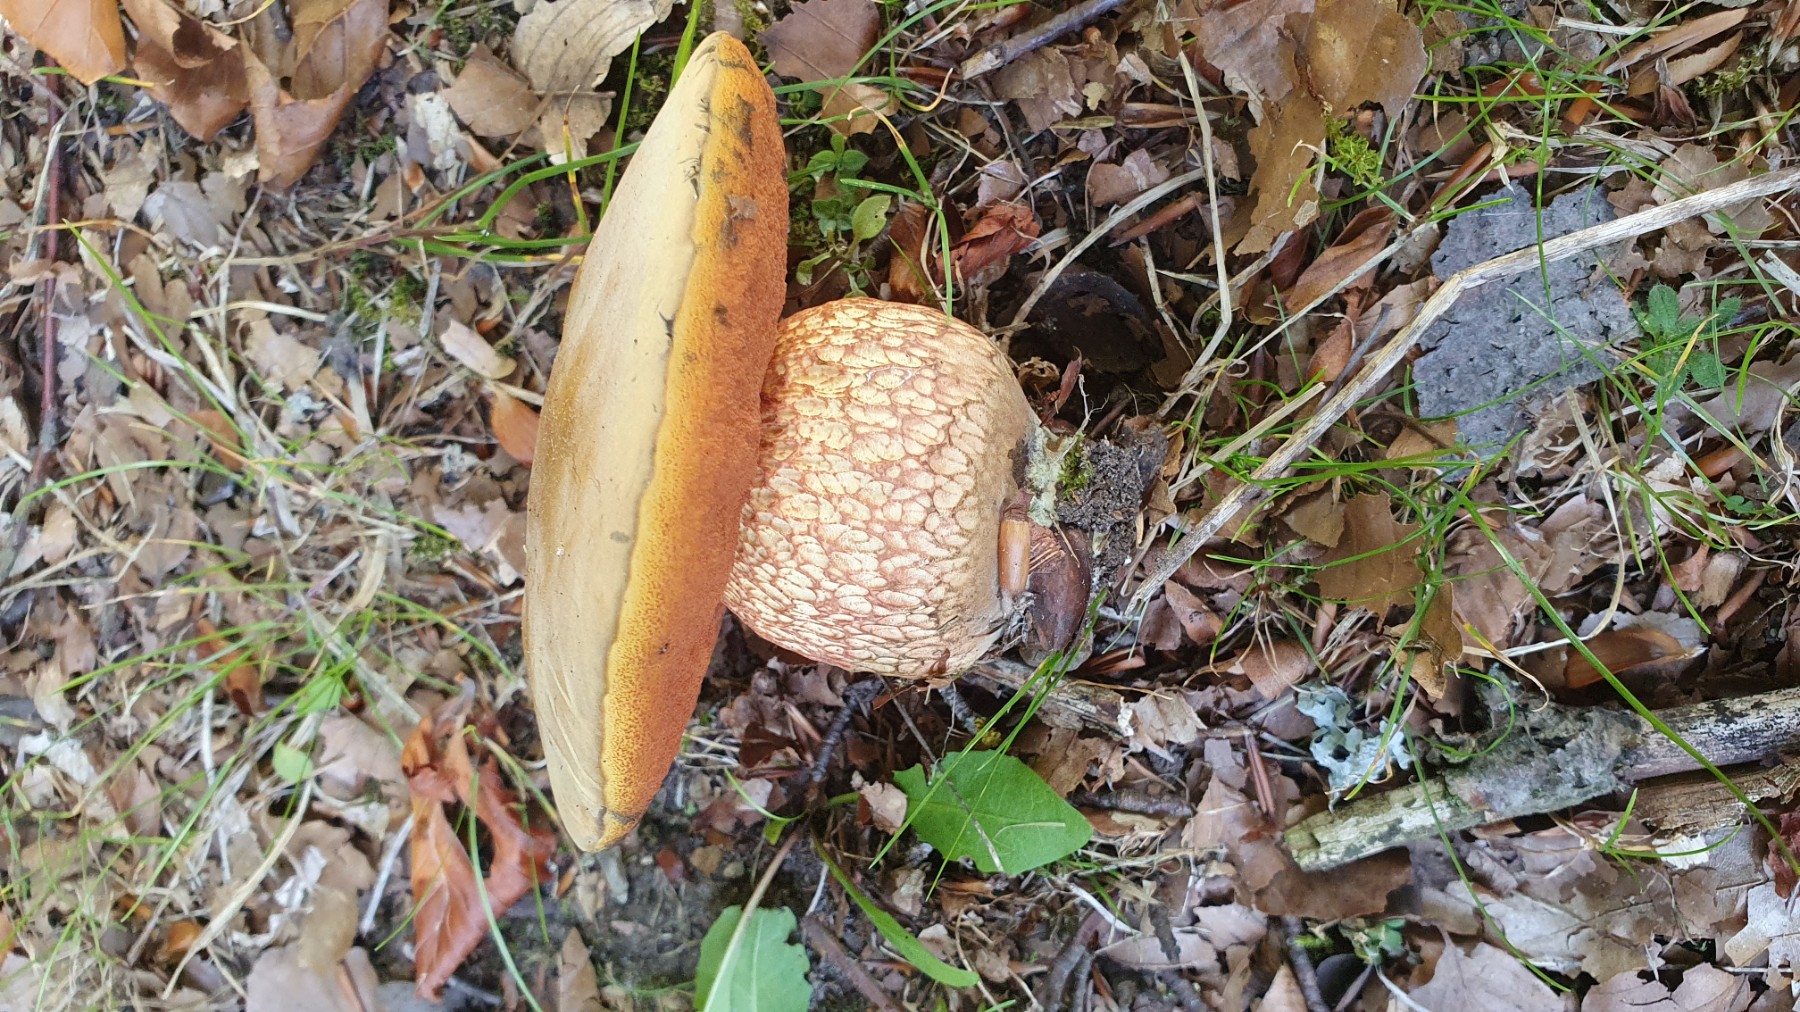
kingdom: Fungi
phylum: Basidiomycota
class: Agaricomycetes
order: Boletales
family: Boletaceae
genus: Suillellus
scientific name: Suillellus luridus
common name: netstokket indigorørhat
